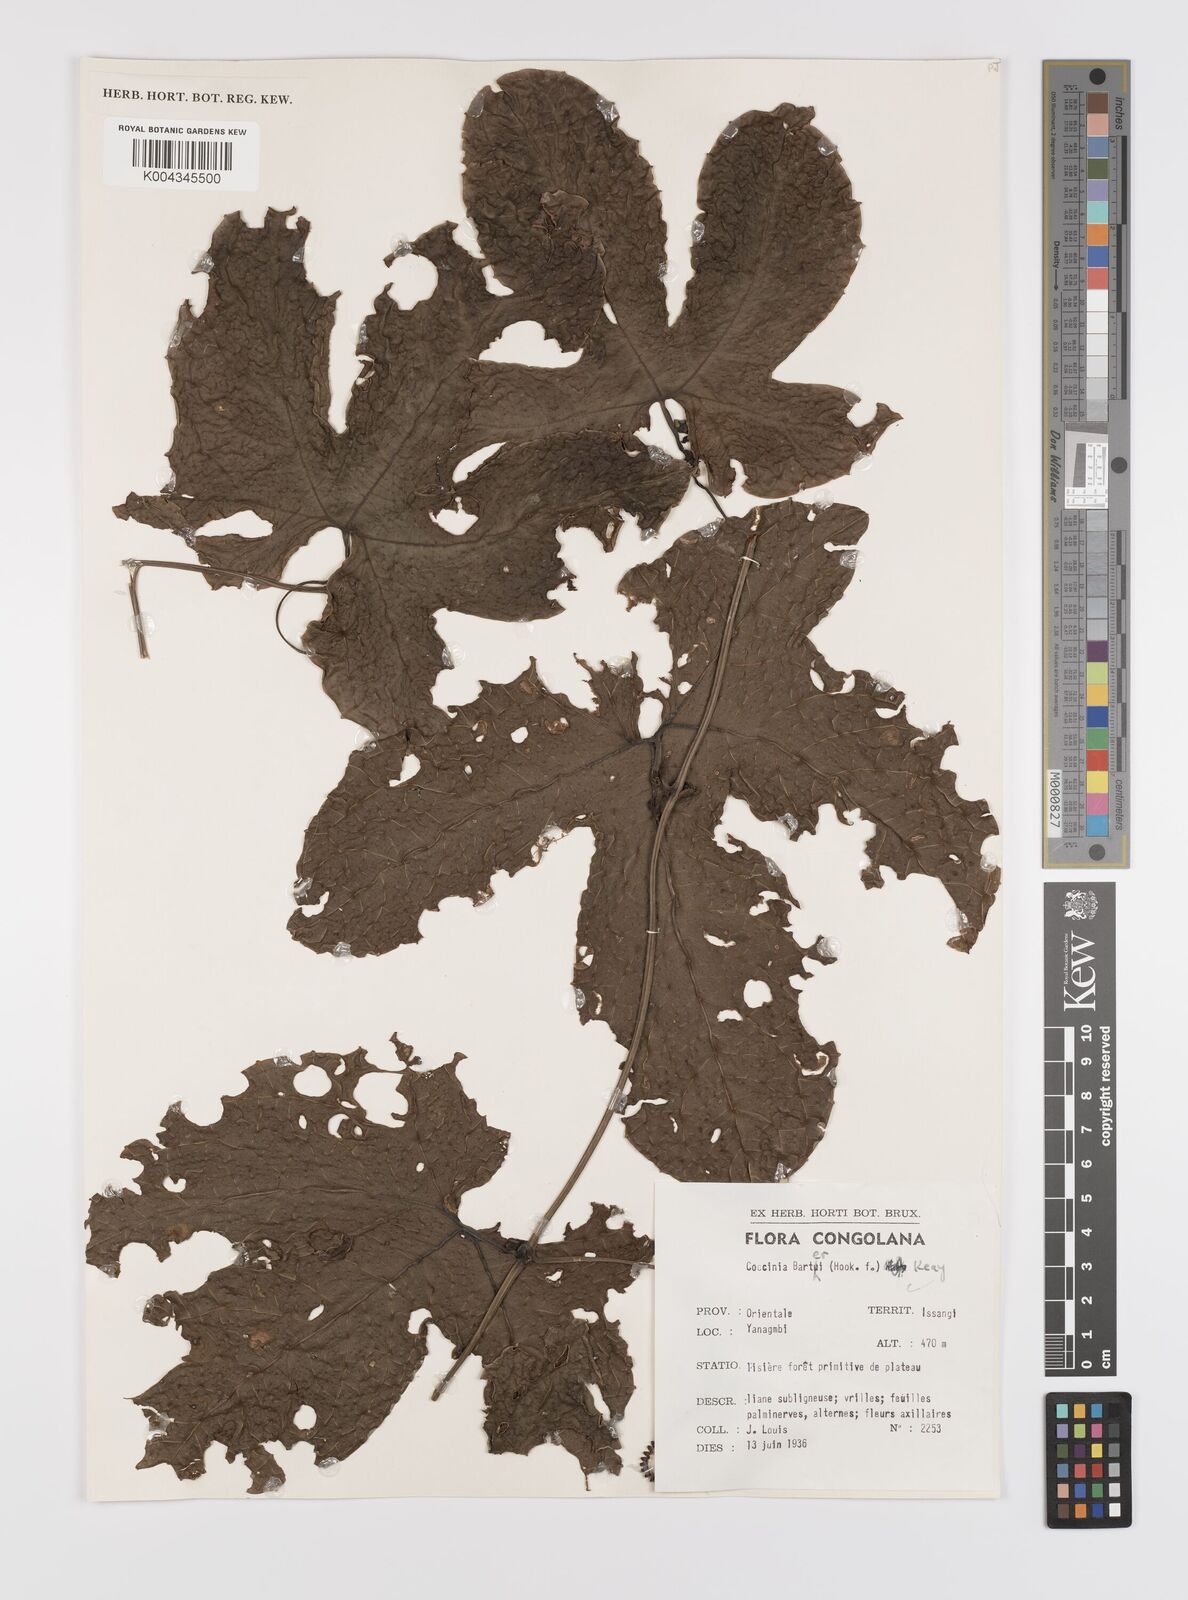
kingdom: Plantae
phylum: Tracheophyta
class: Magnoliopsida
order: Cucurbitales
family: Cucurbitaceae
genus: Coccinia
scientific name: Coccinia barteri
